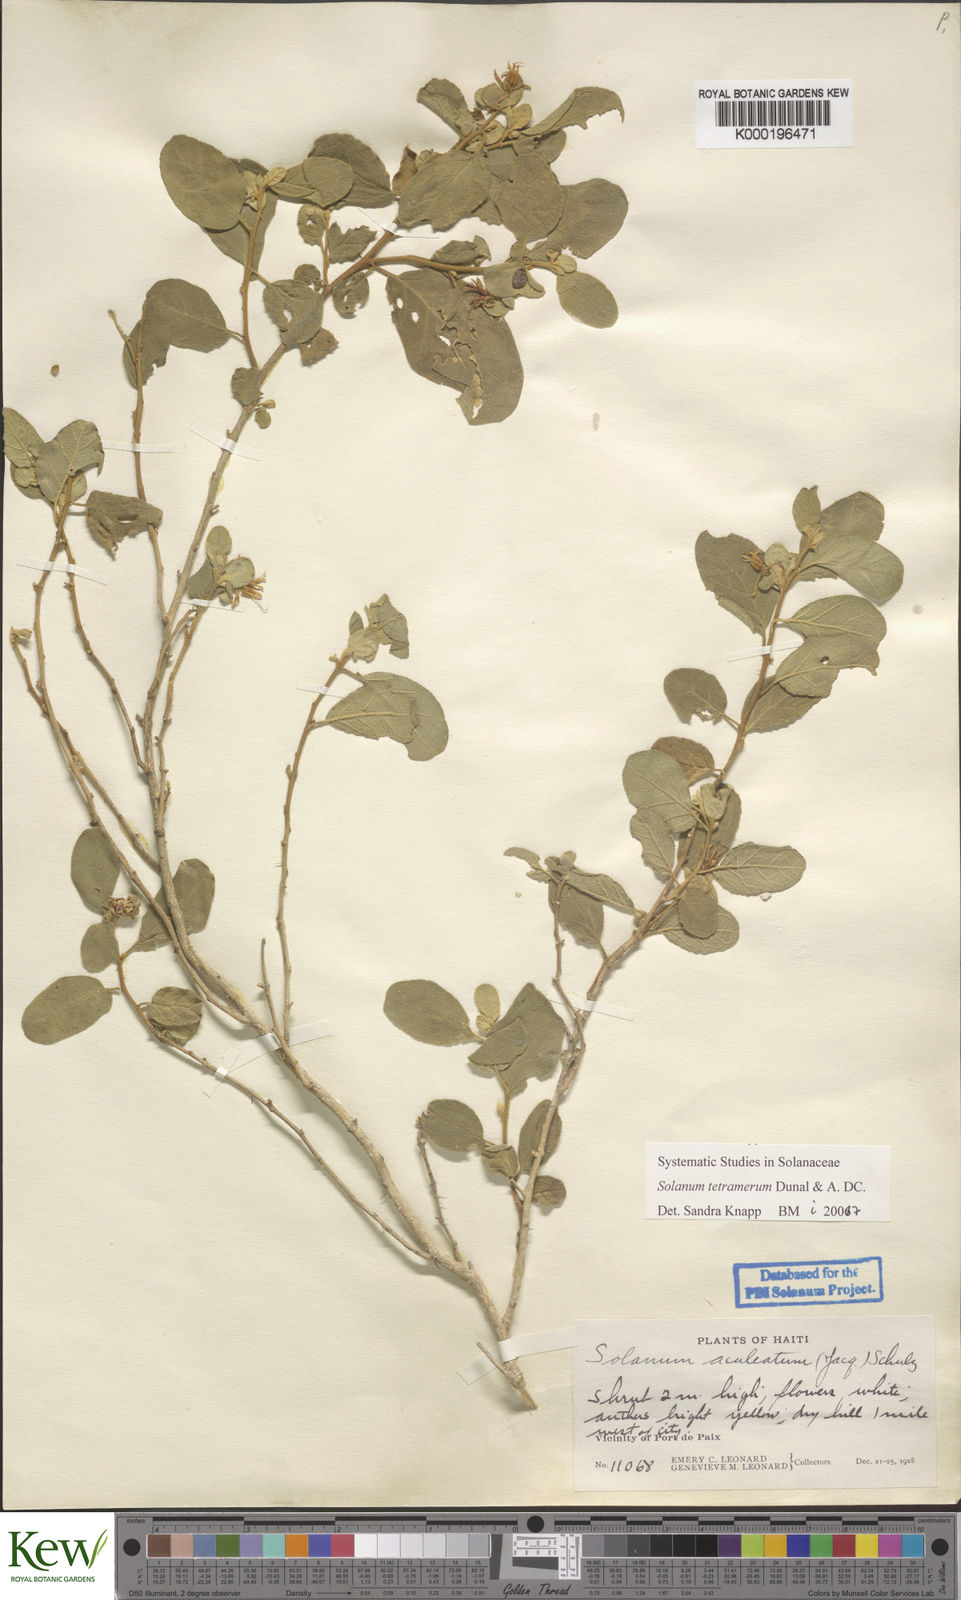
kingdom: Plantae
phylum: Tracheophyta
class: Magnoliopsida
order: Solanales
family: Solanaceae
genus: Solanum
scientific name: Solanum tetramerum
